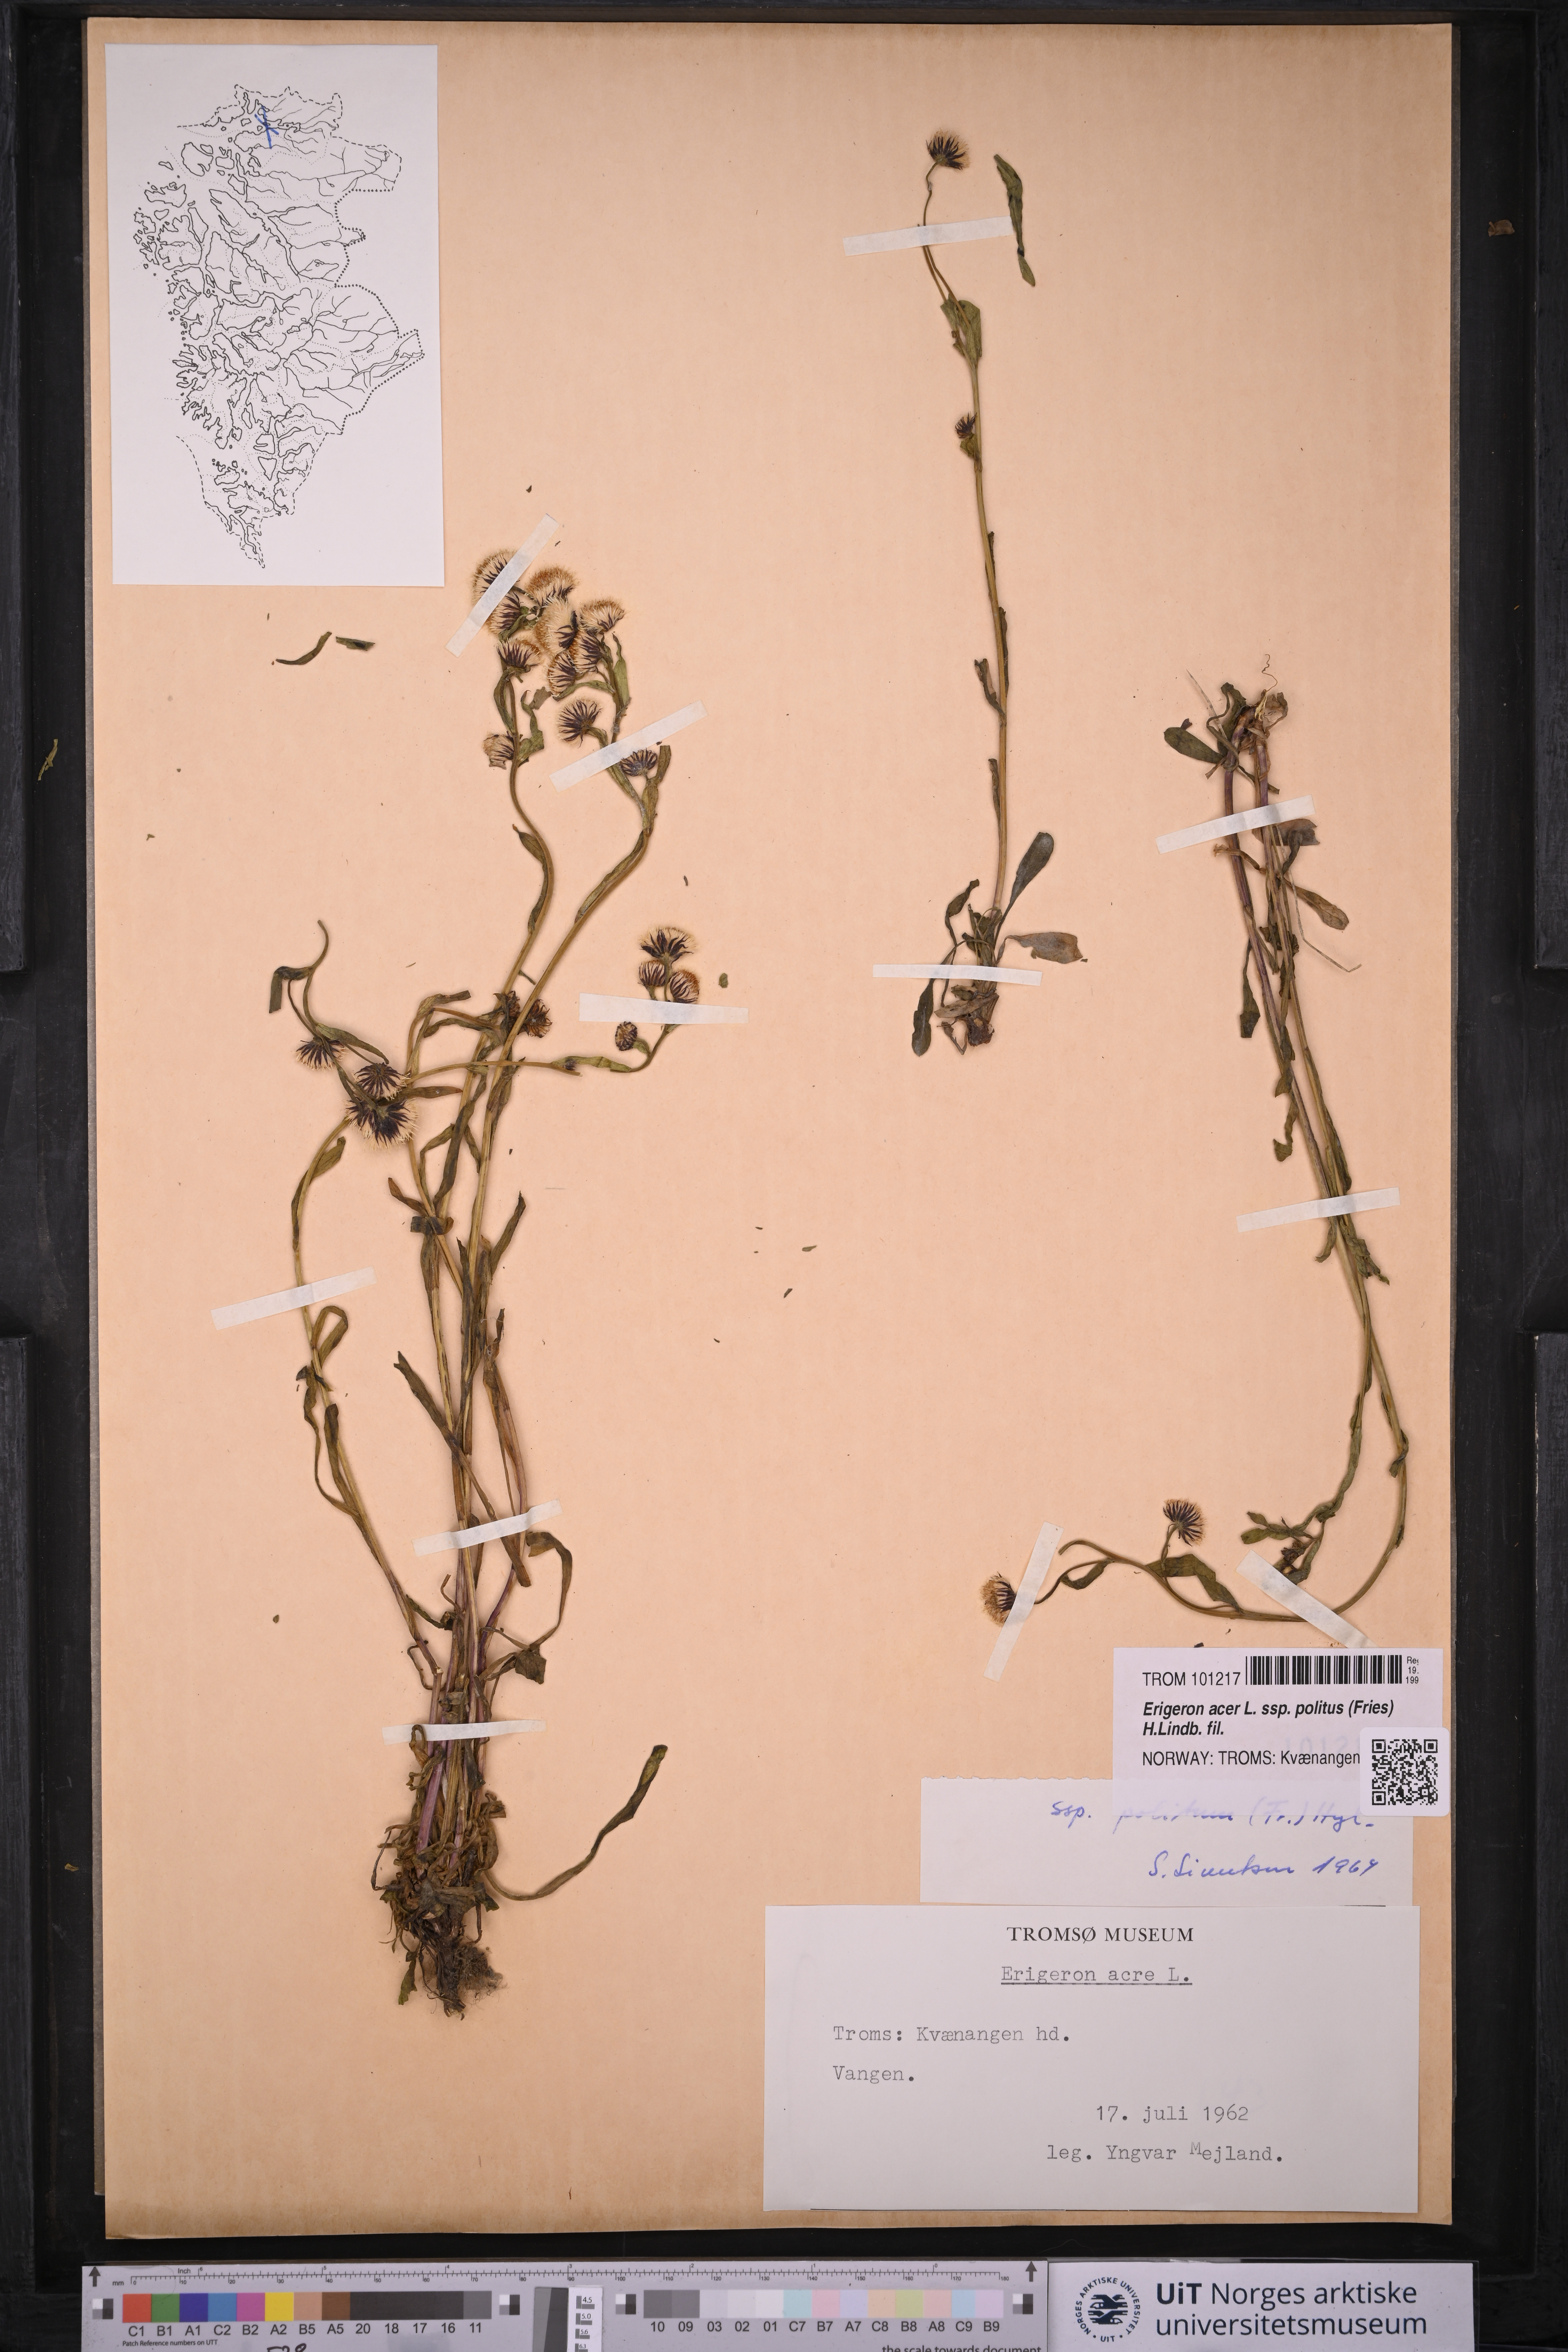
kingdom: Plantae
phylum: Tracheophyta
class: Magnoliopsida
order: Asterales
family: Asteraceae
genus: Erigeron
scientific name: Erigeron politus
